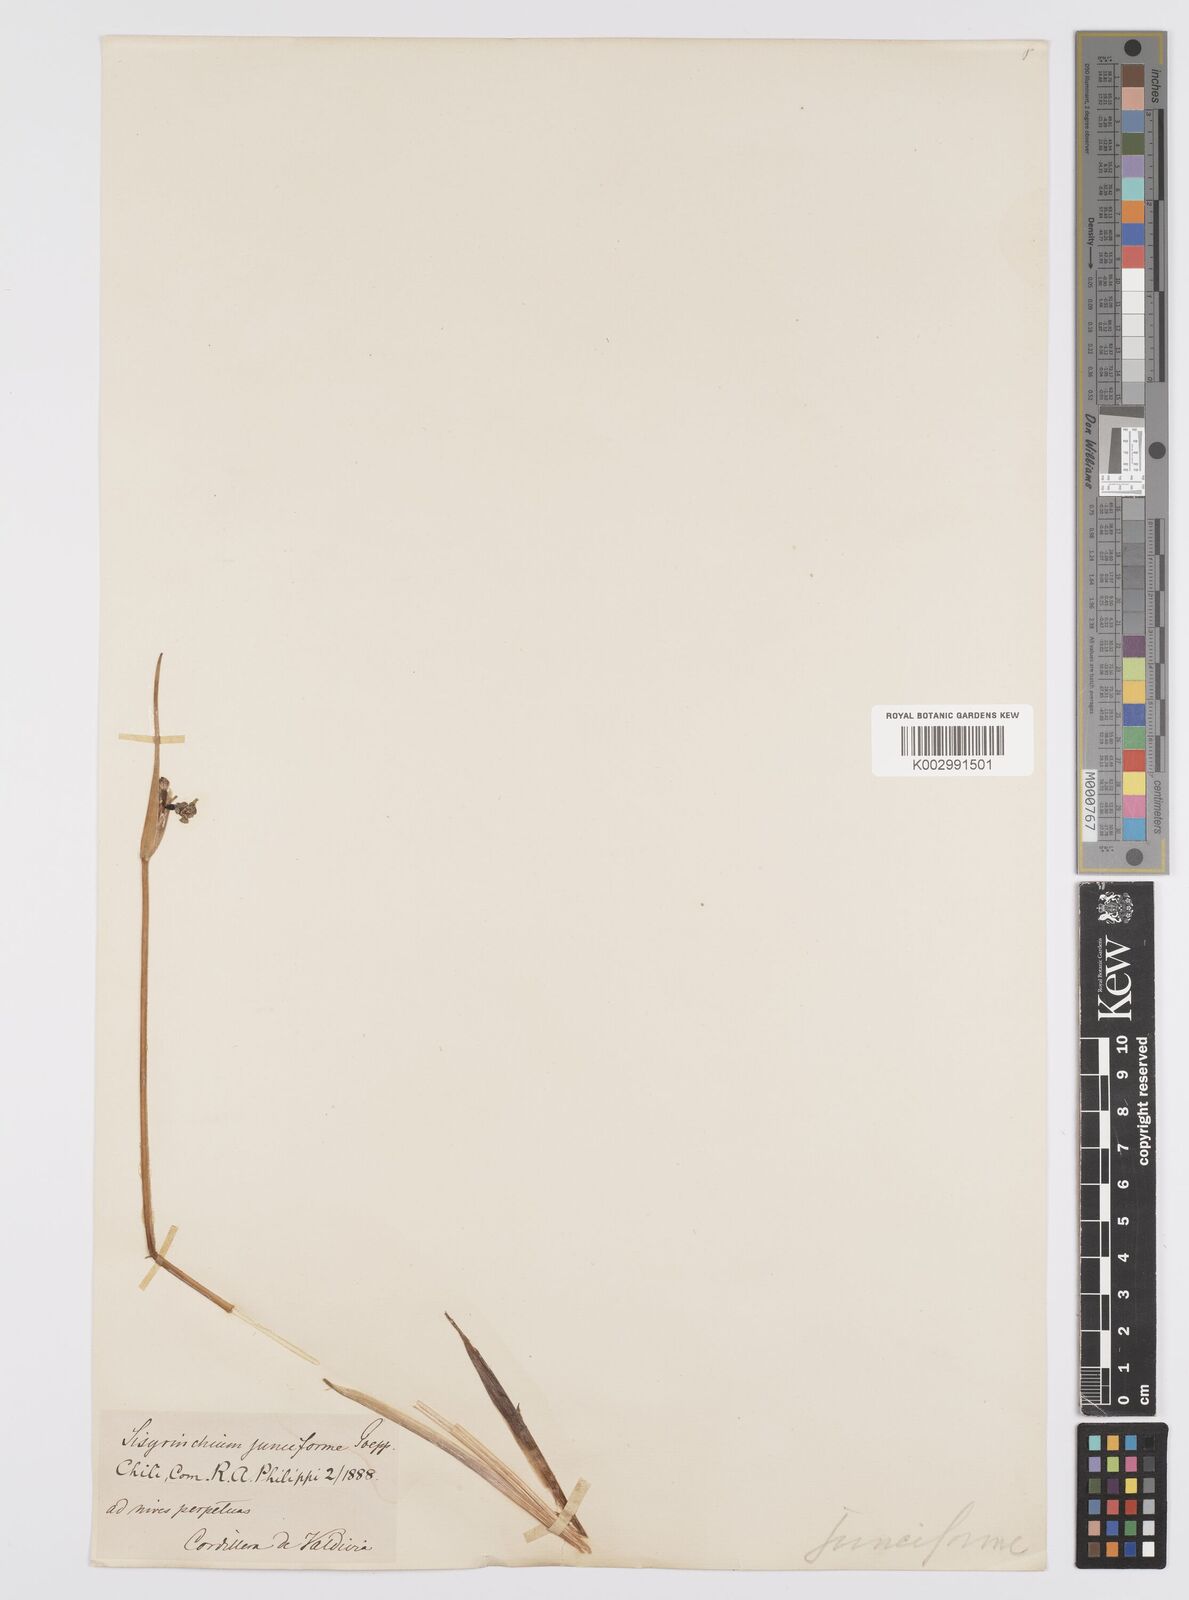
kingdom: Plantae
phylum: Tracheophyta
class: Liliopsida
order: Asparagales
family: Iridaceae
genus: Olsynium
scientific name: Olsynium junceum
